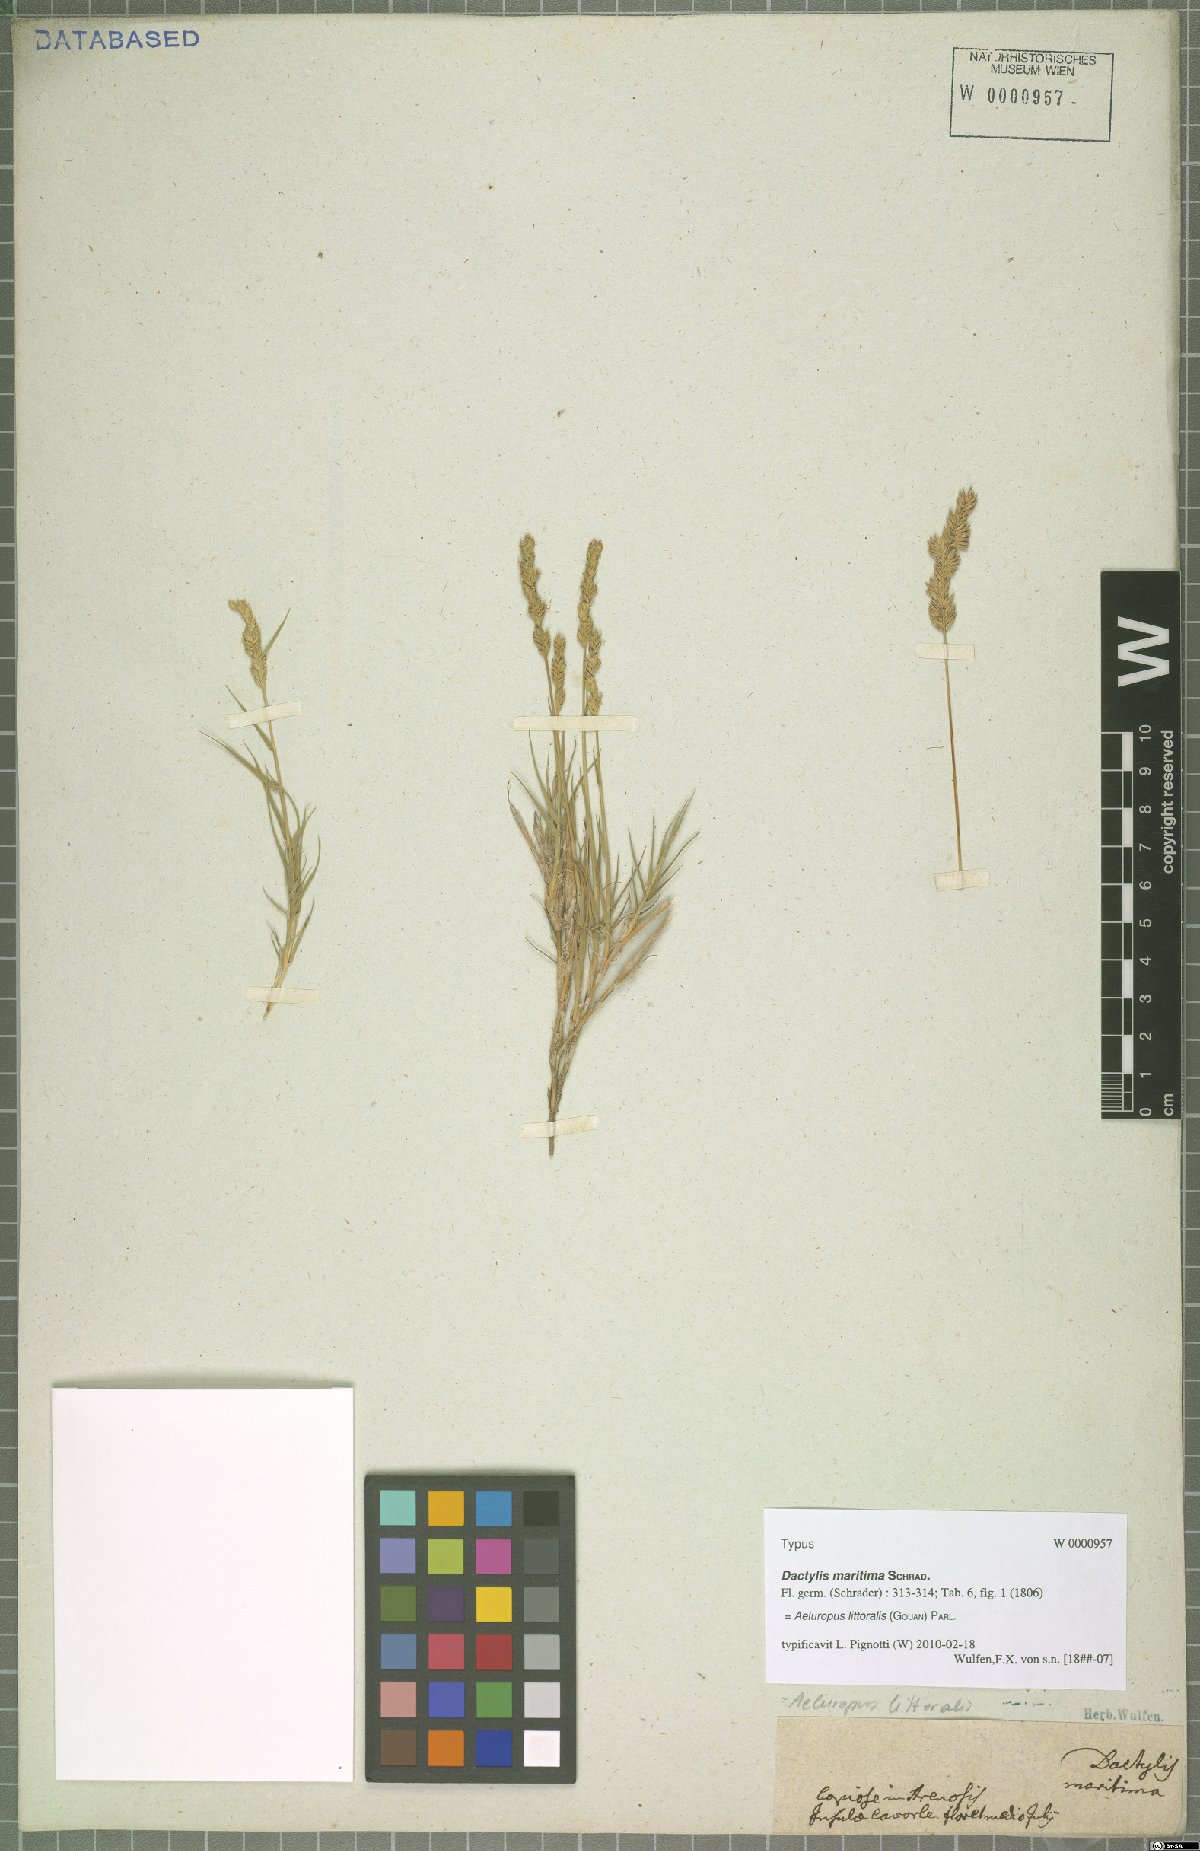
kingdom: Plantae
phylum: Tracheophyta
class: Liliopsida
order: Poales
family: Poaceae
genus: Aeluropus
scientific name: Aeluropus littoralis
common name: Indian walnut
